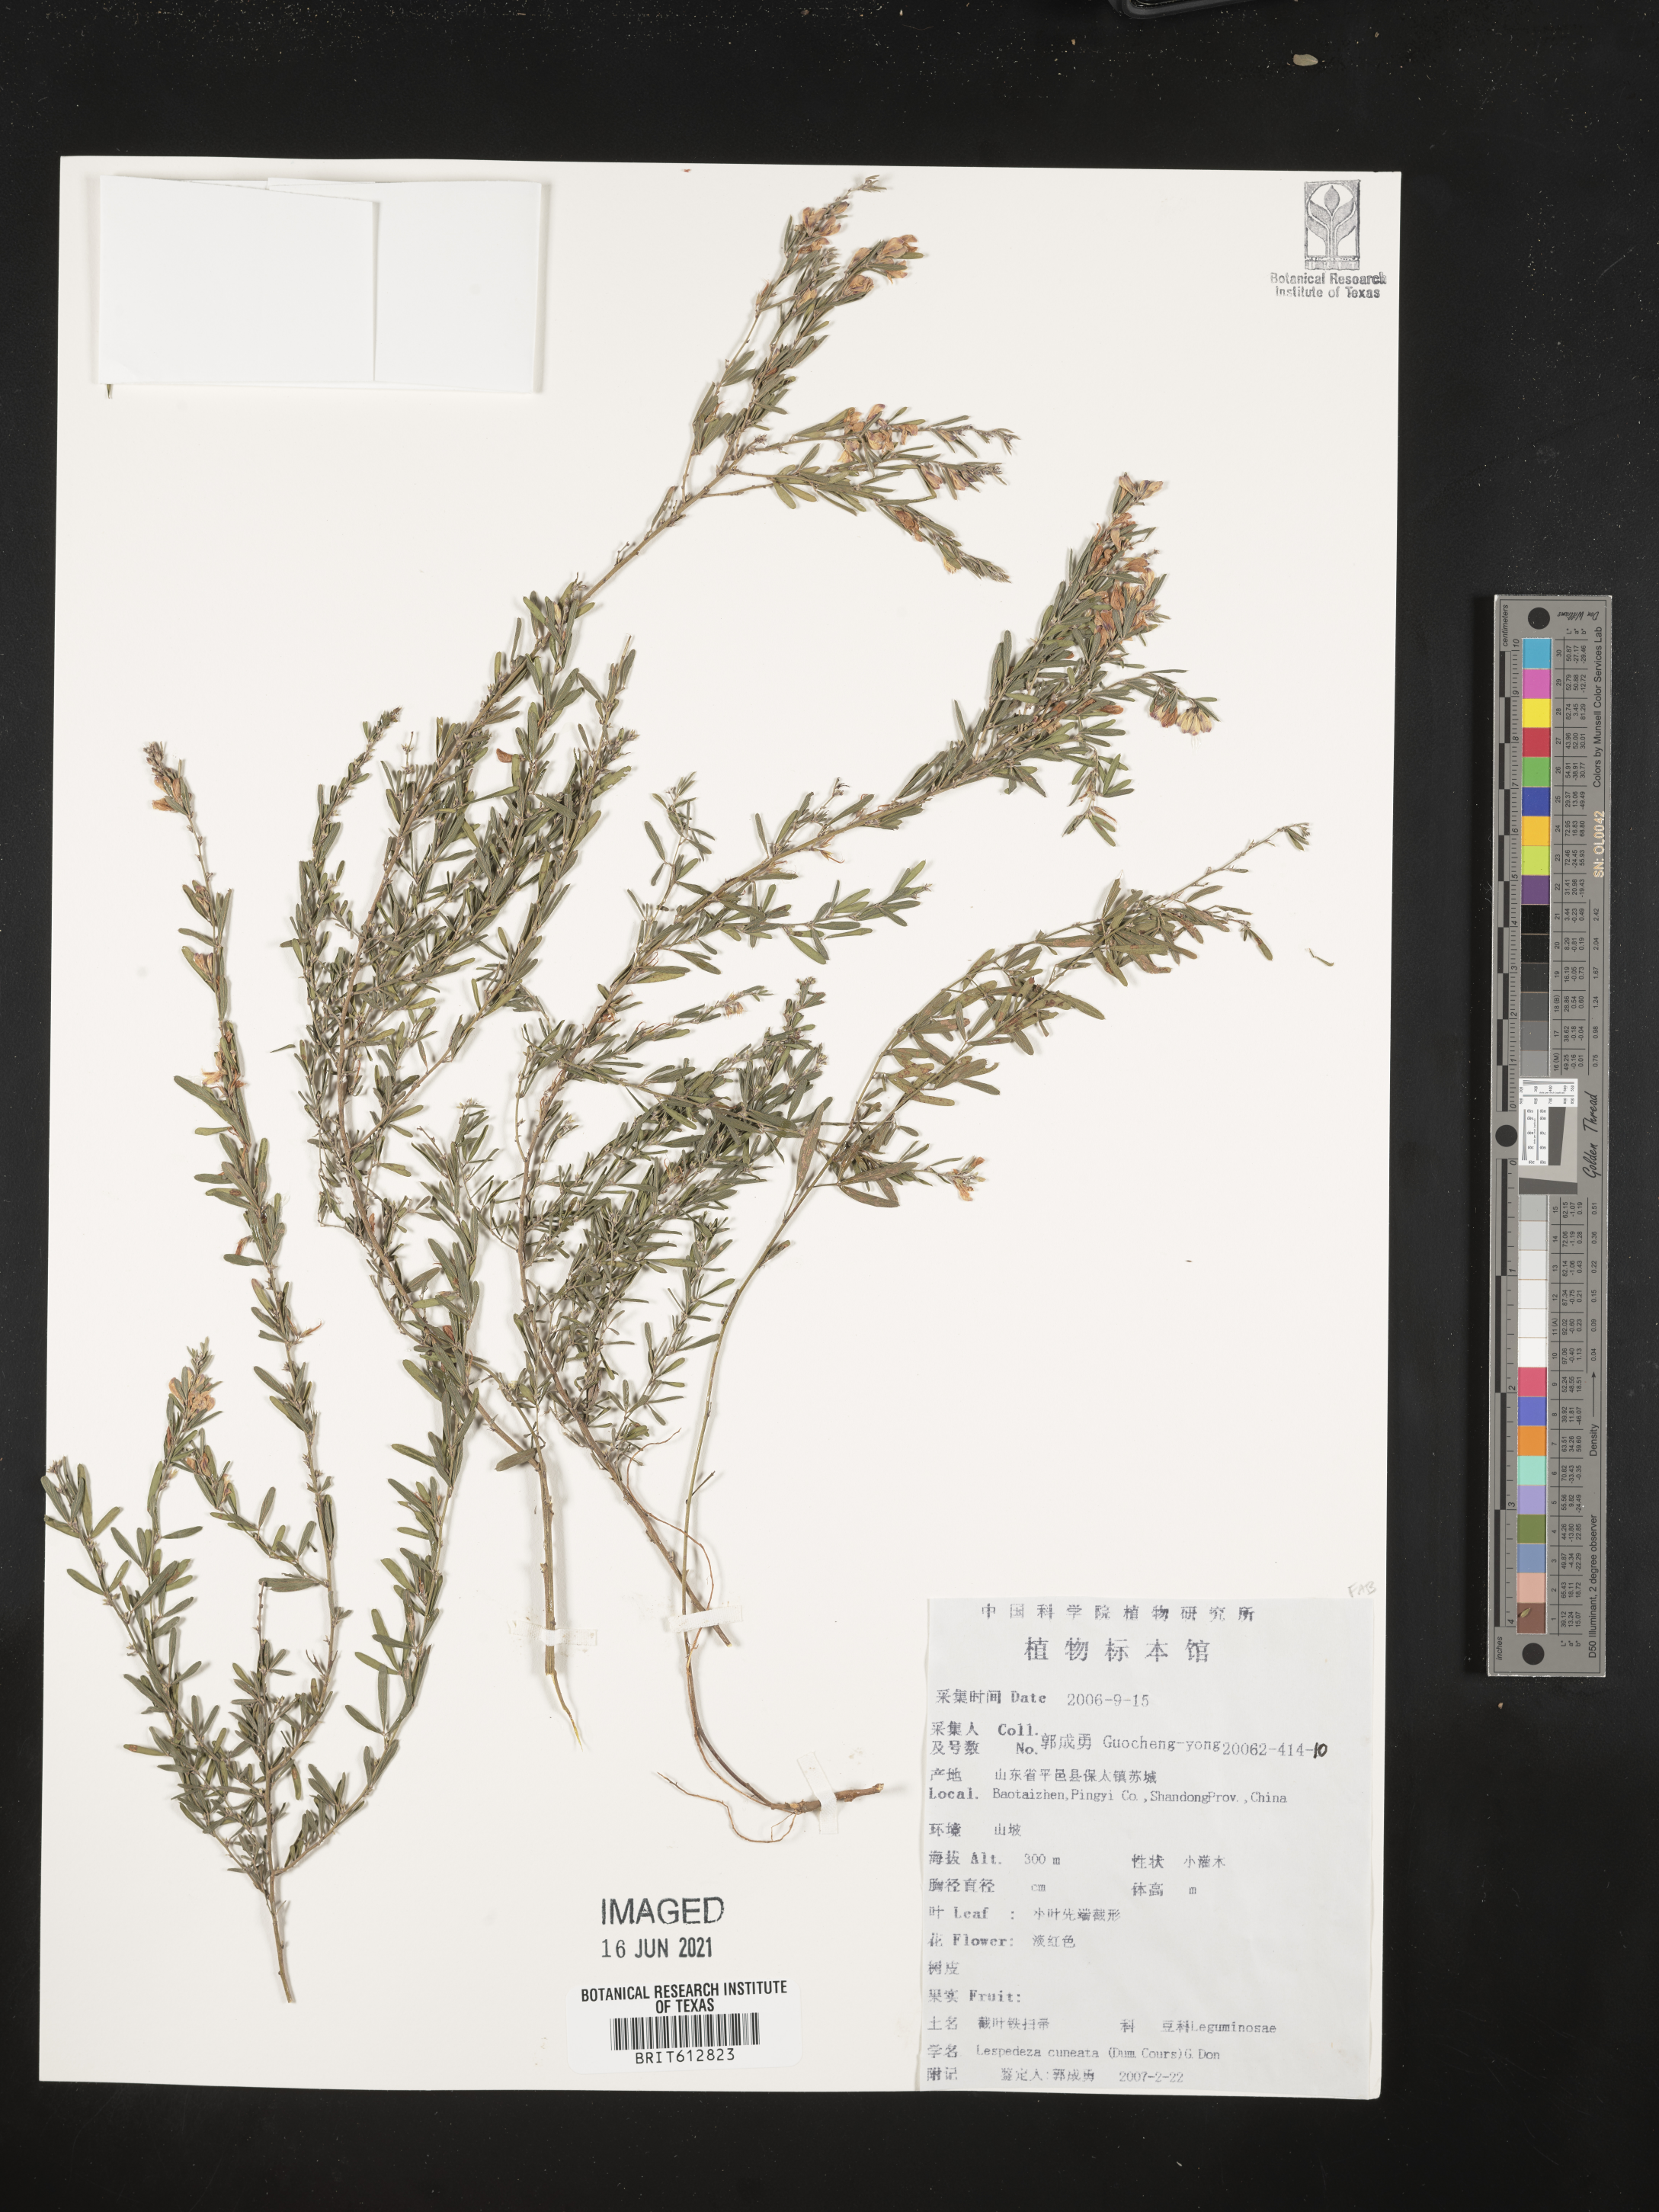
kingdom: Plantae
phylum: Tracheophyta
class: Magnoliopsida
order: Fabales
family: Fabaceae
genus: Lespedeza
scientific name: Lespedeza cuneata
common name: Chinese bush-clover
